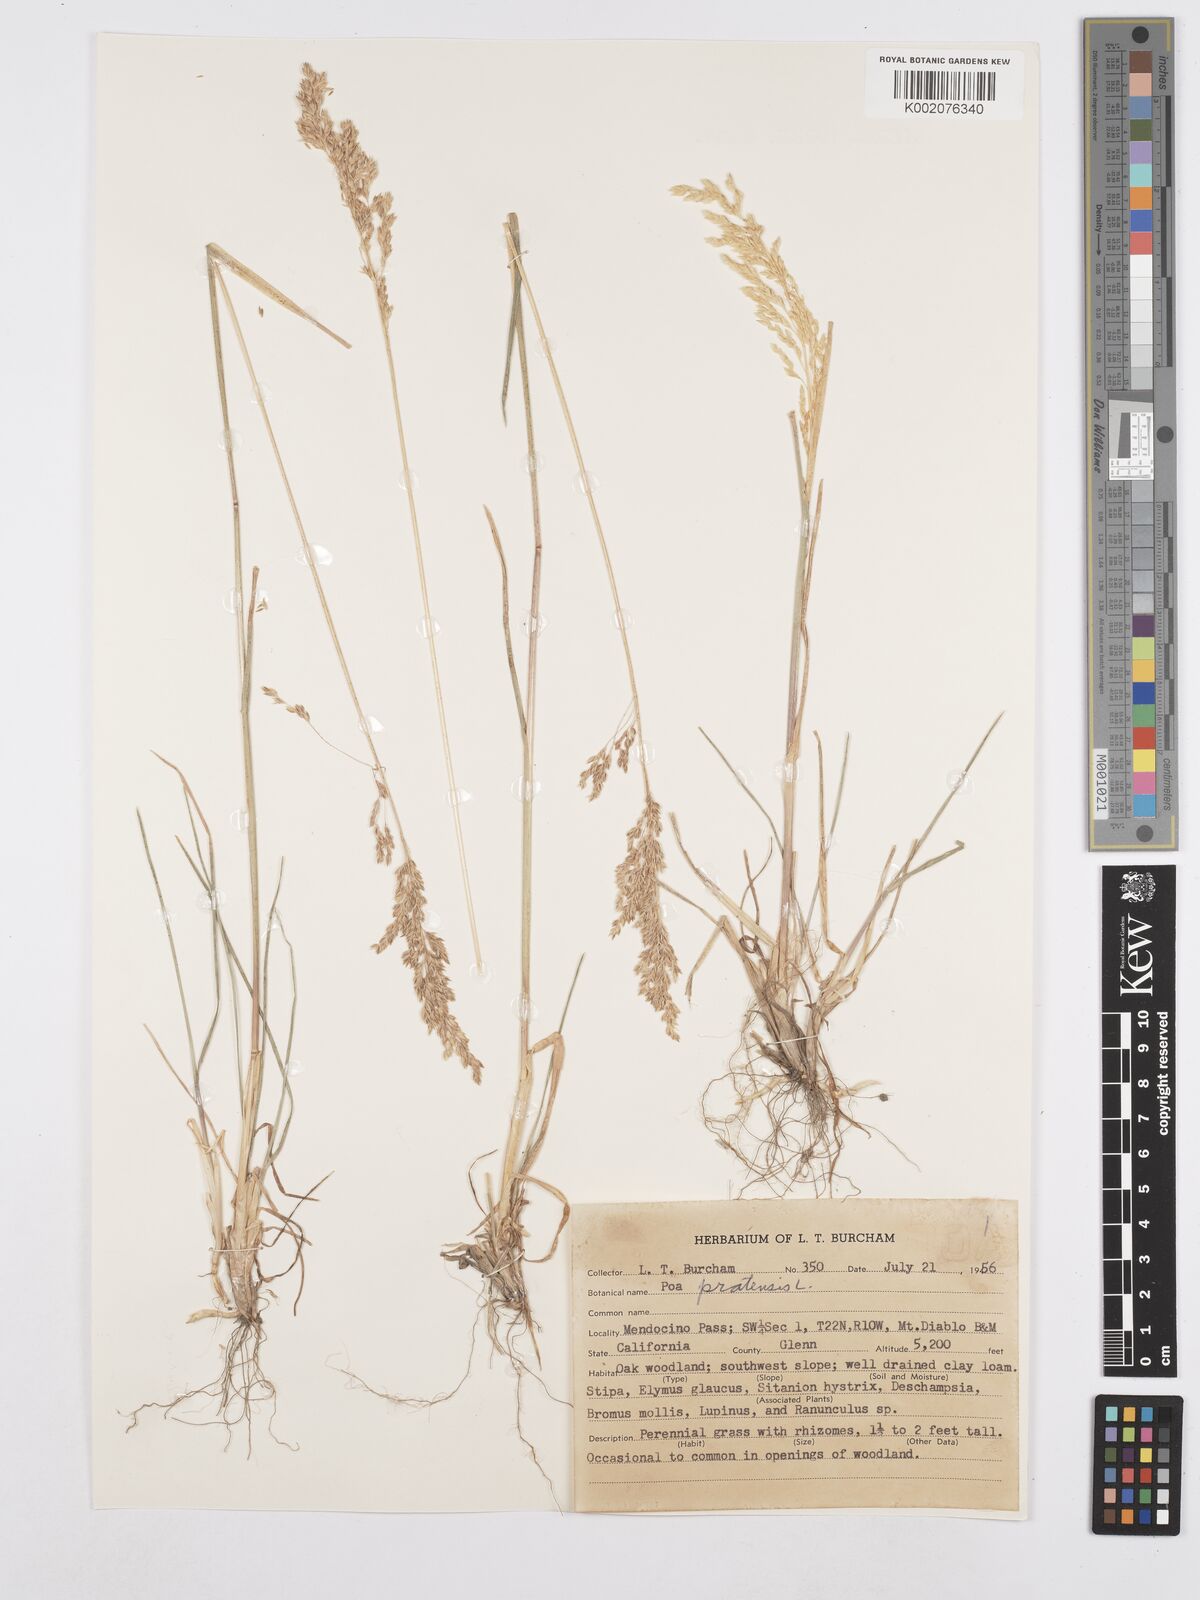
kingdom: Plantae
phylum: Tracheophyta
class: Liliopsida
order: Poales
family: Poaceae
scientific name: Poaceae
